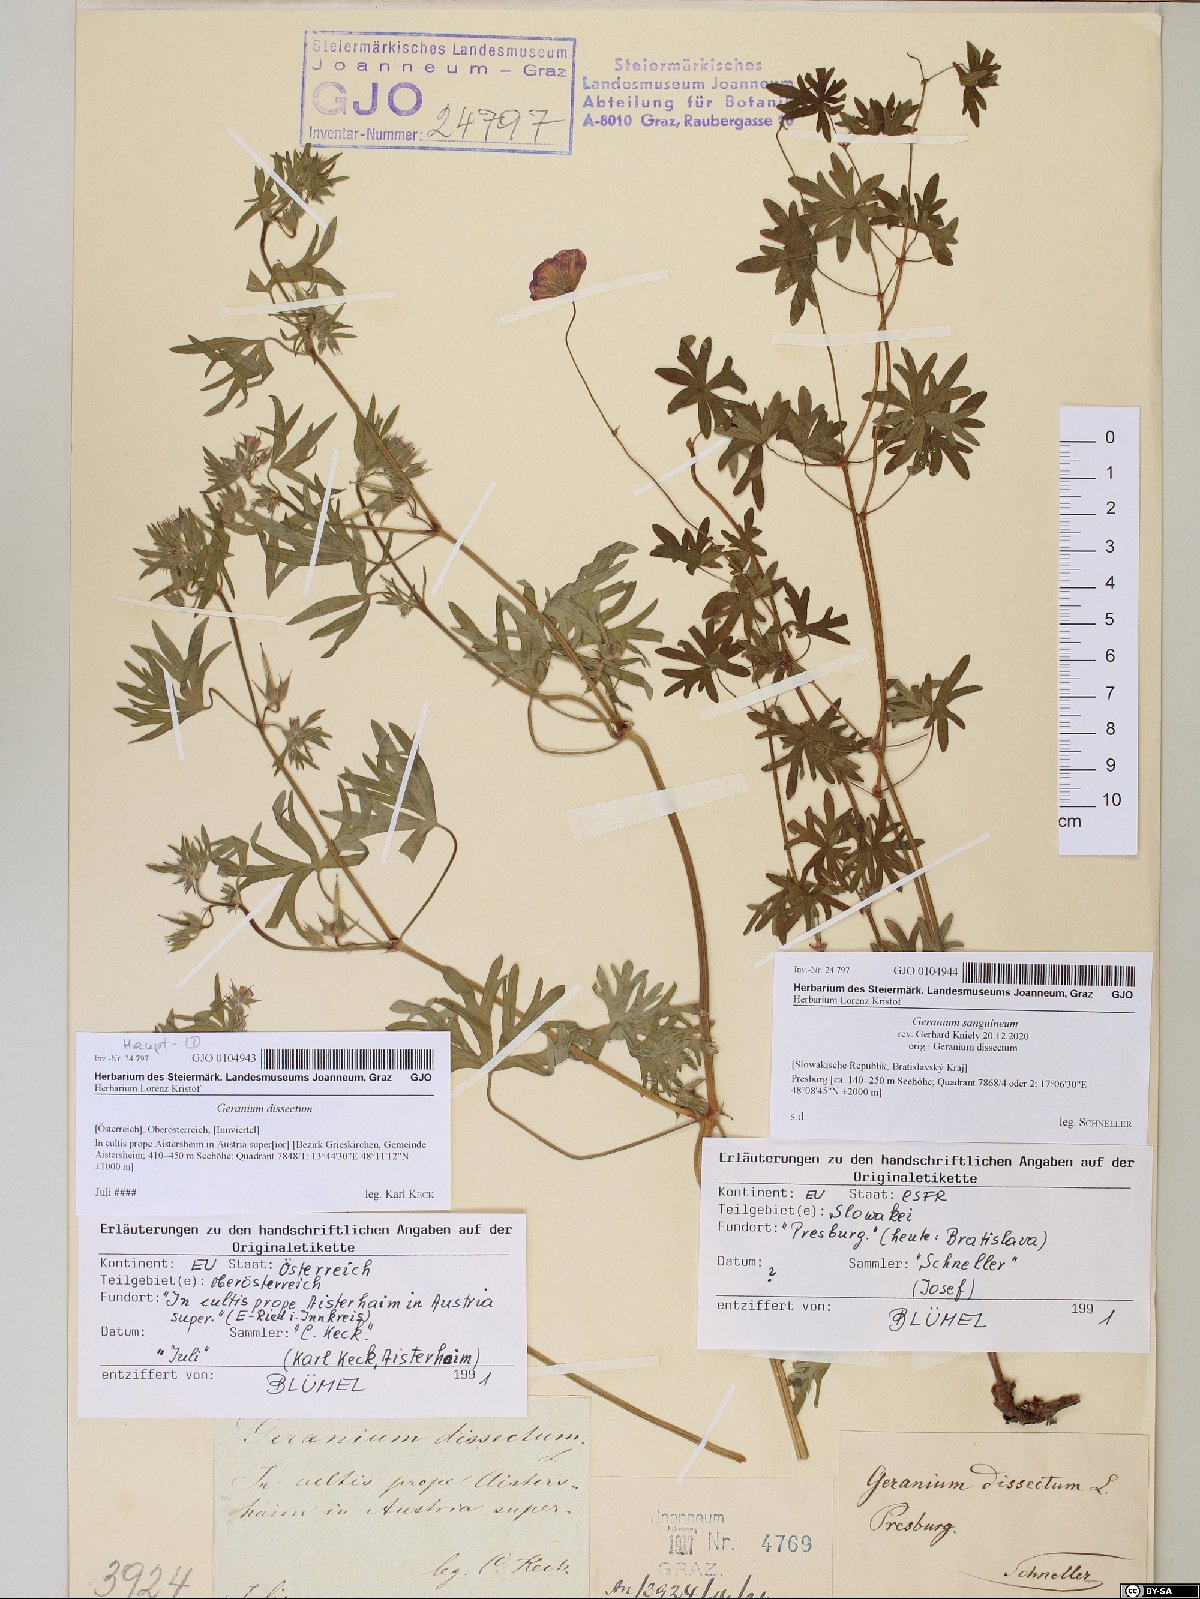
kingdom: Plantae
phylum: Tracheophyta
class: Magnoliopsida
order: Geraniales
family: Geraniaceae
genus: Geranium
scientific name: Geranium dissectum
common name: Cut-leaved crane's-bill
